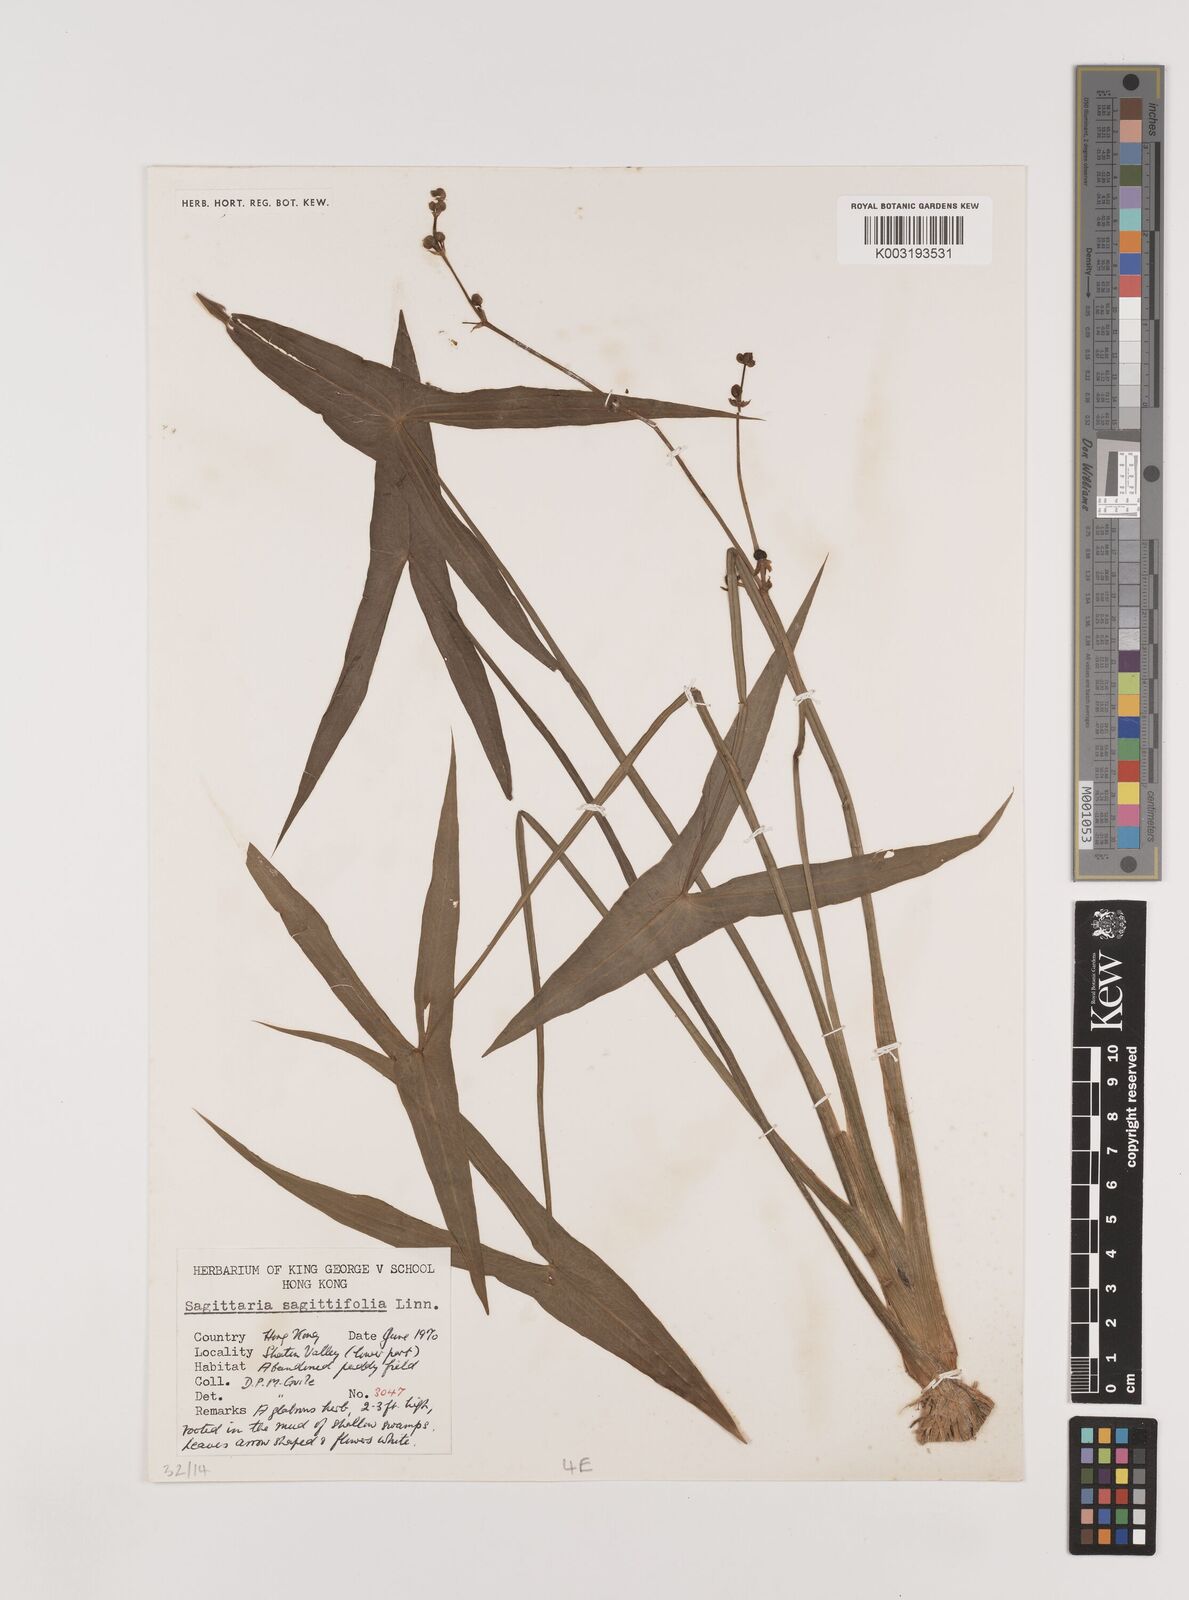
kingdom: Plantae
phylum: Tracheophyta
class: Liliopsida
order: Alismatales
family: Alismataceae
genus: Sagittaria
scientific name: Sagittaria sagittifolia
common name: Arrowhead
